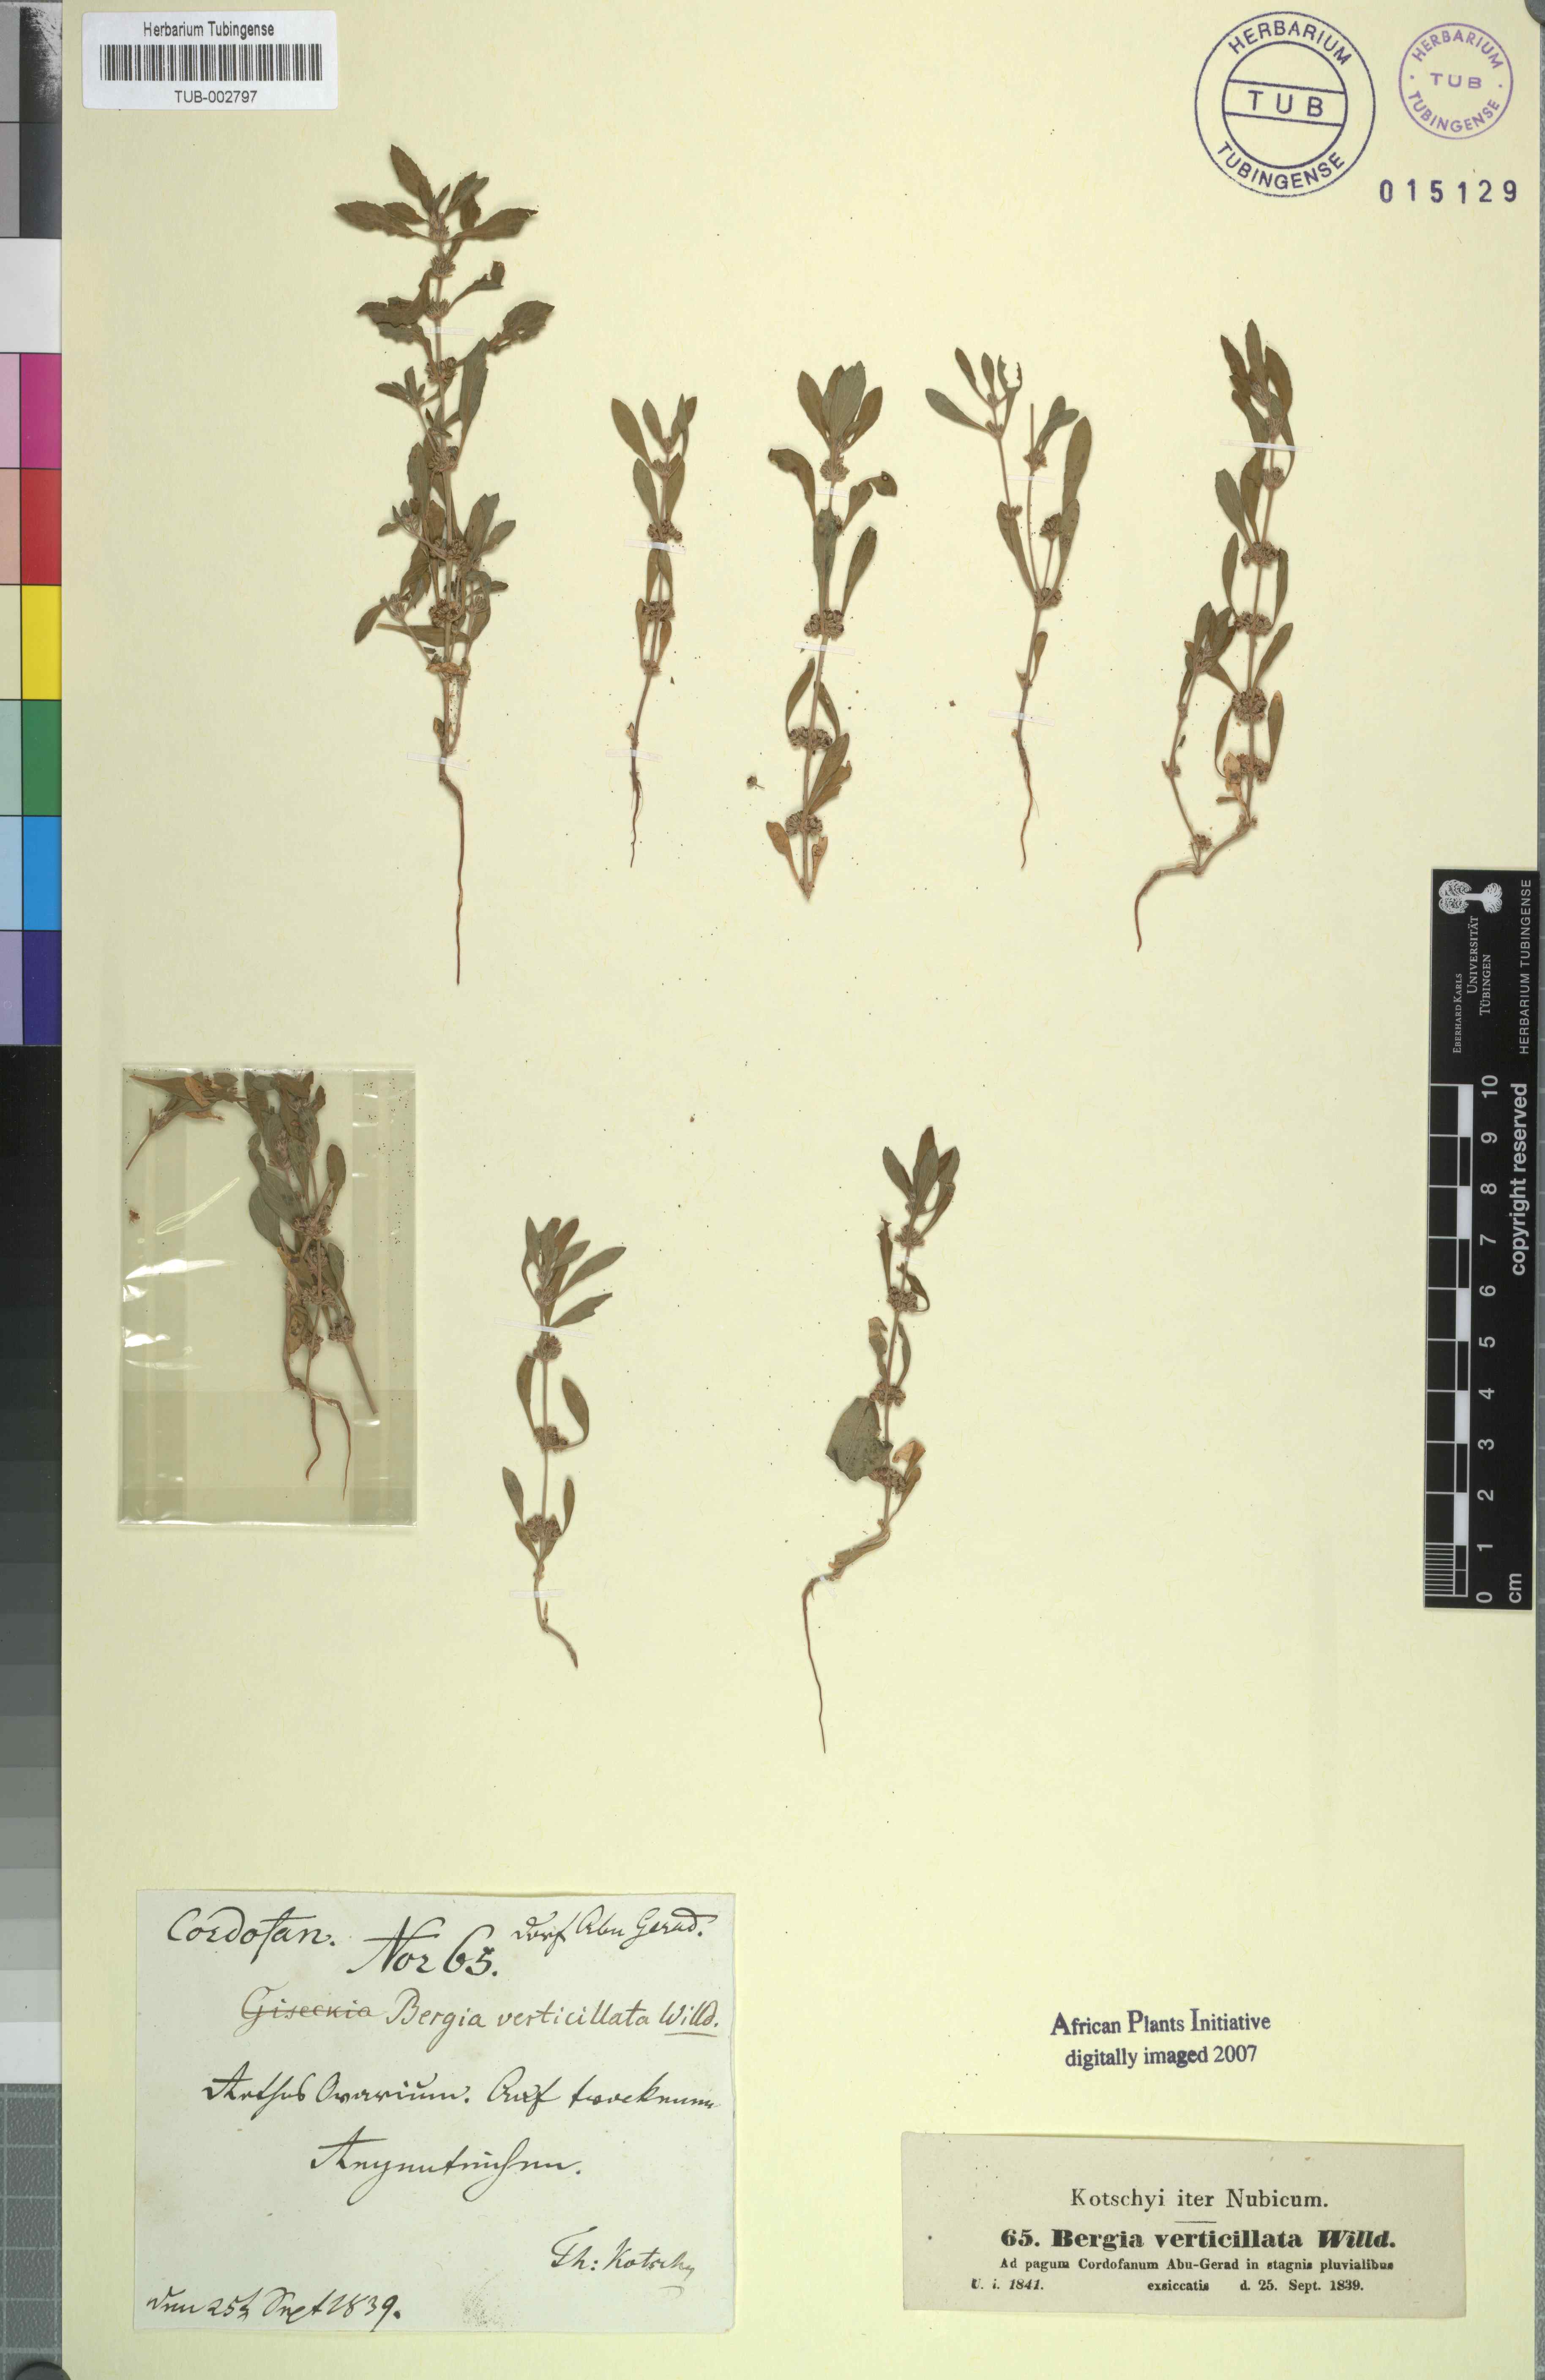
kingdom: Plantae
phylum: Tracheophyta
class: Magnoliopsida
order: Malpighiales
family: Elatinaceae
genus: Bergia
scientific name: Bergia capensis
